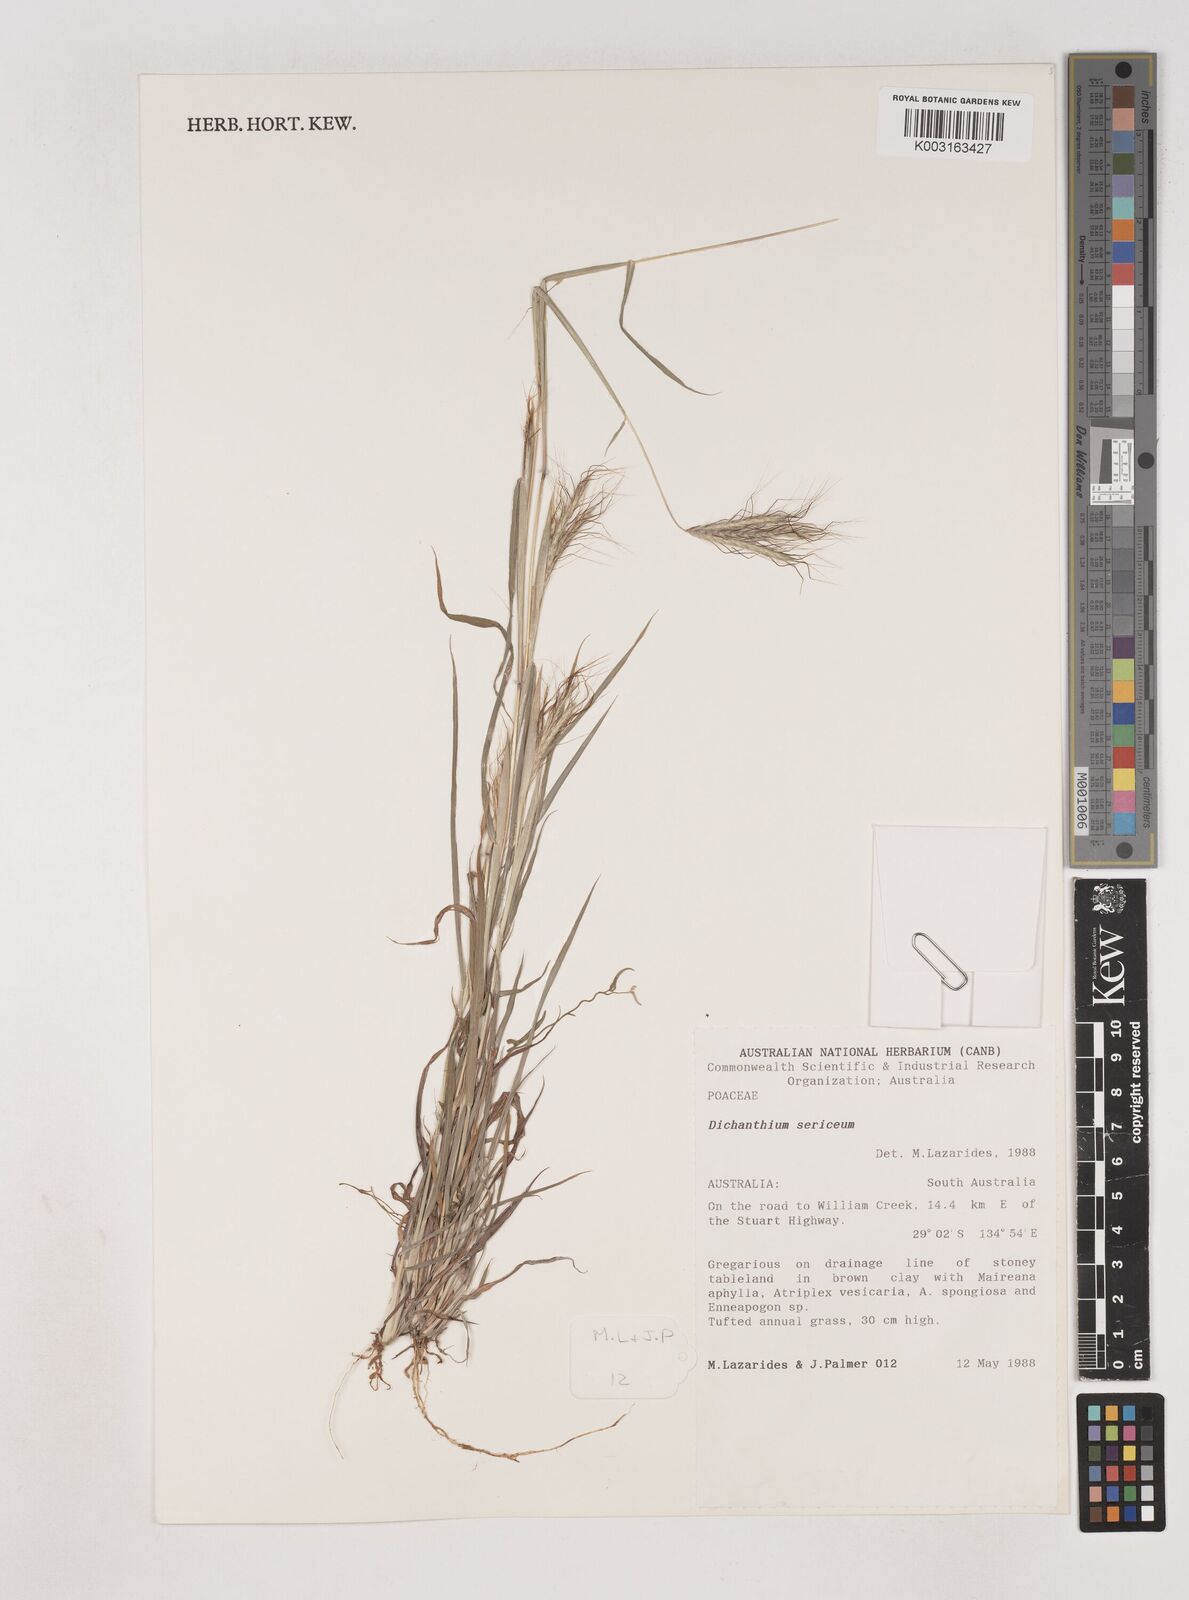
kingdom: Plantae
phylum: Tracheophyta
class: Liliopsida
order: Poales
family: Poaceae
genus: Dichanthium
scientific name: Dichanthium sericeum
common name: Silky bluestem
